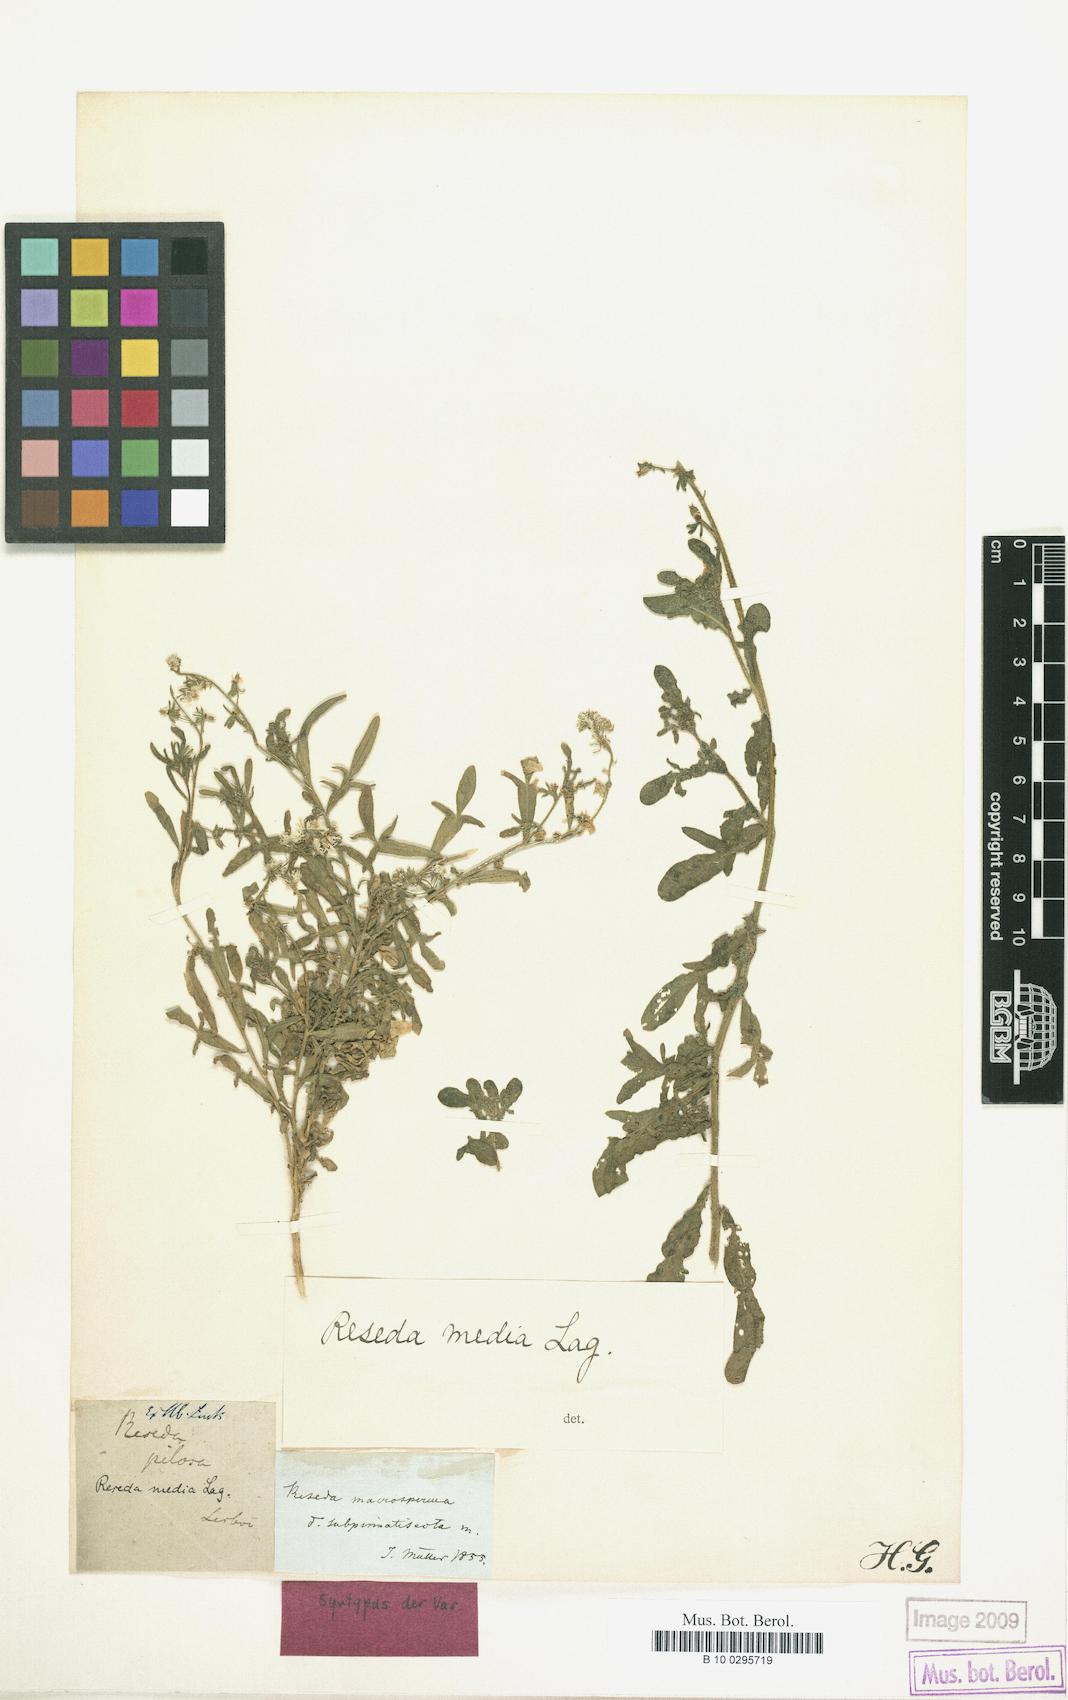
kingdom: Plantae
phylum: Tracheophyta
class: Magnoliopsida
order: Brassicales
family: Resedaceae
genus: Reseda
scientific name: Reseda media
